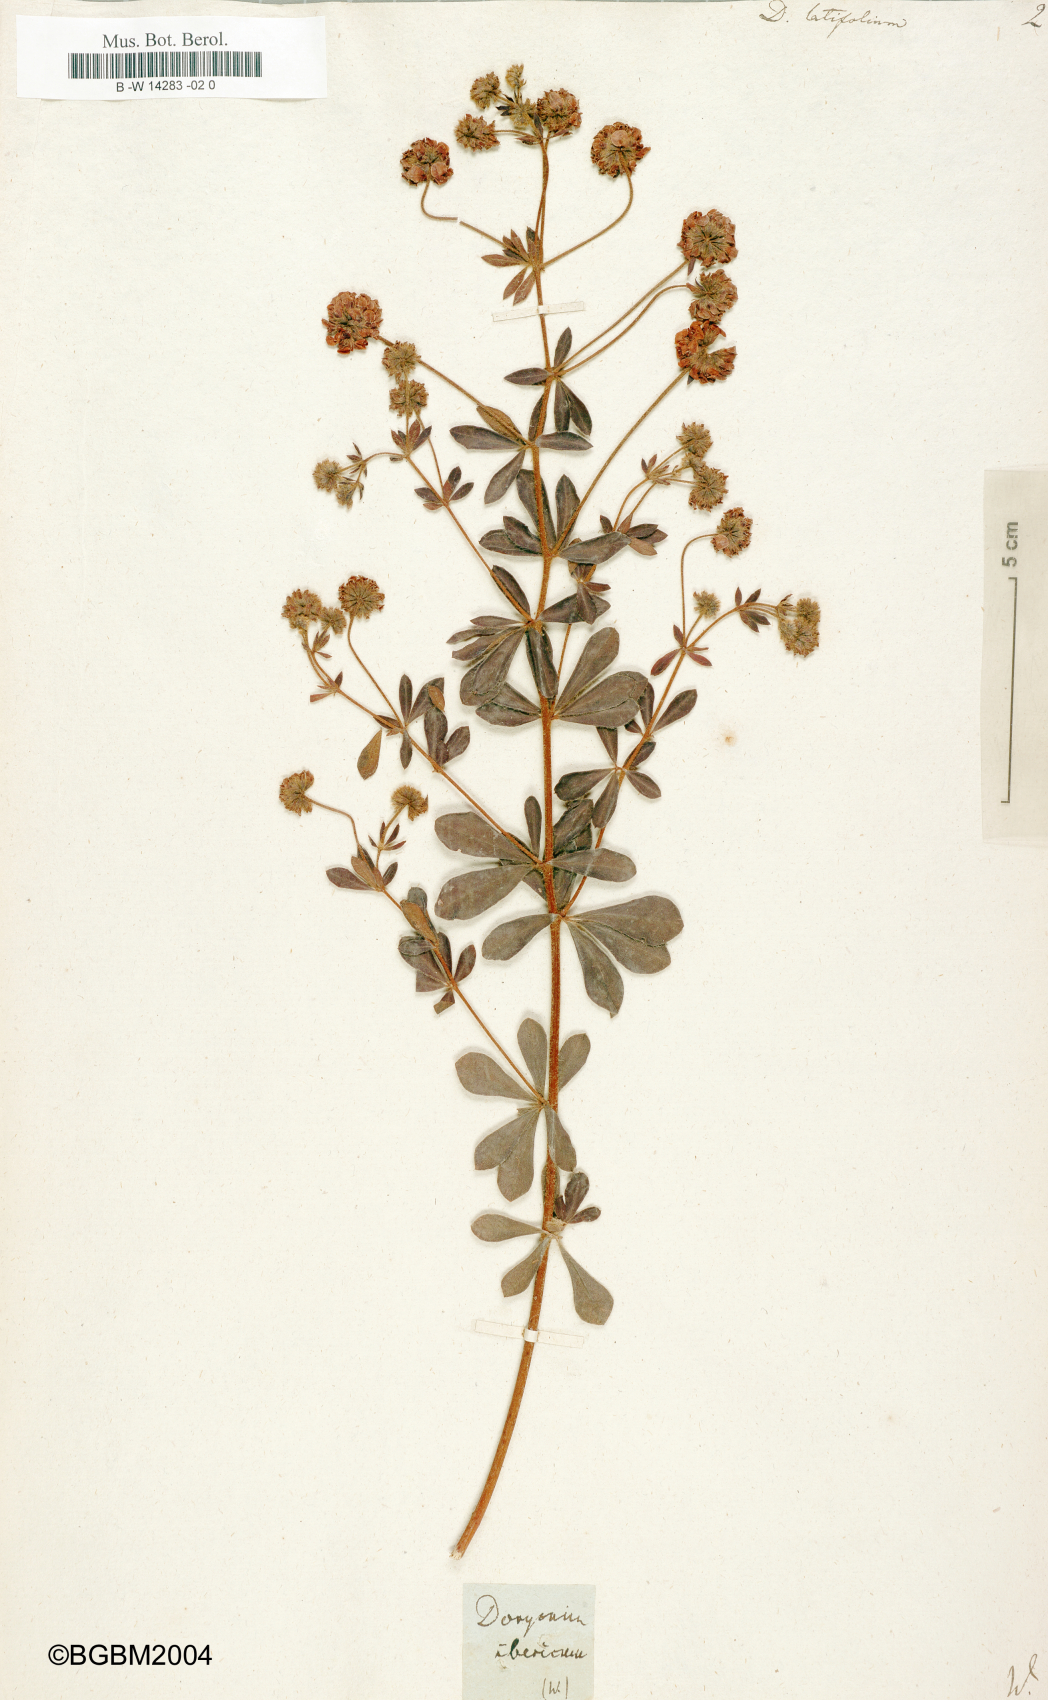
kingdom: Plantae
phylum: Tracheophyta
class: Magnoliopsida
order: Fabales
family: Fabaceae
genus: Lotus
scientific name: Lotus graecus
